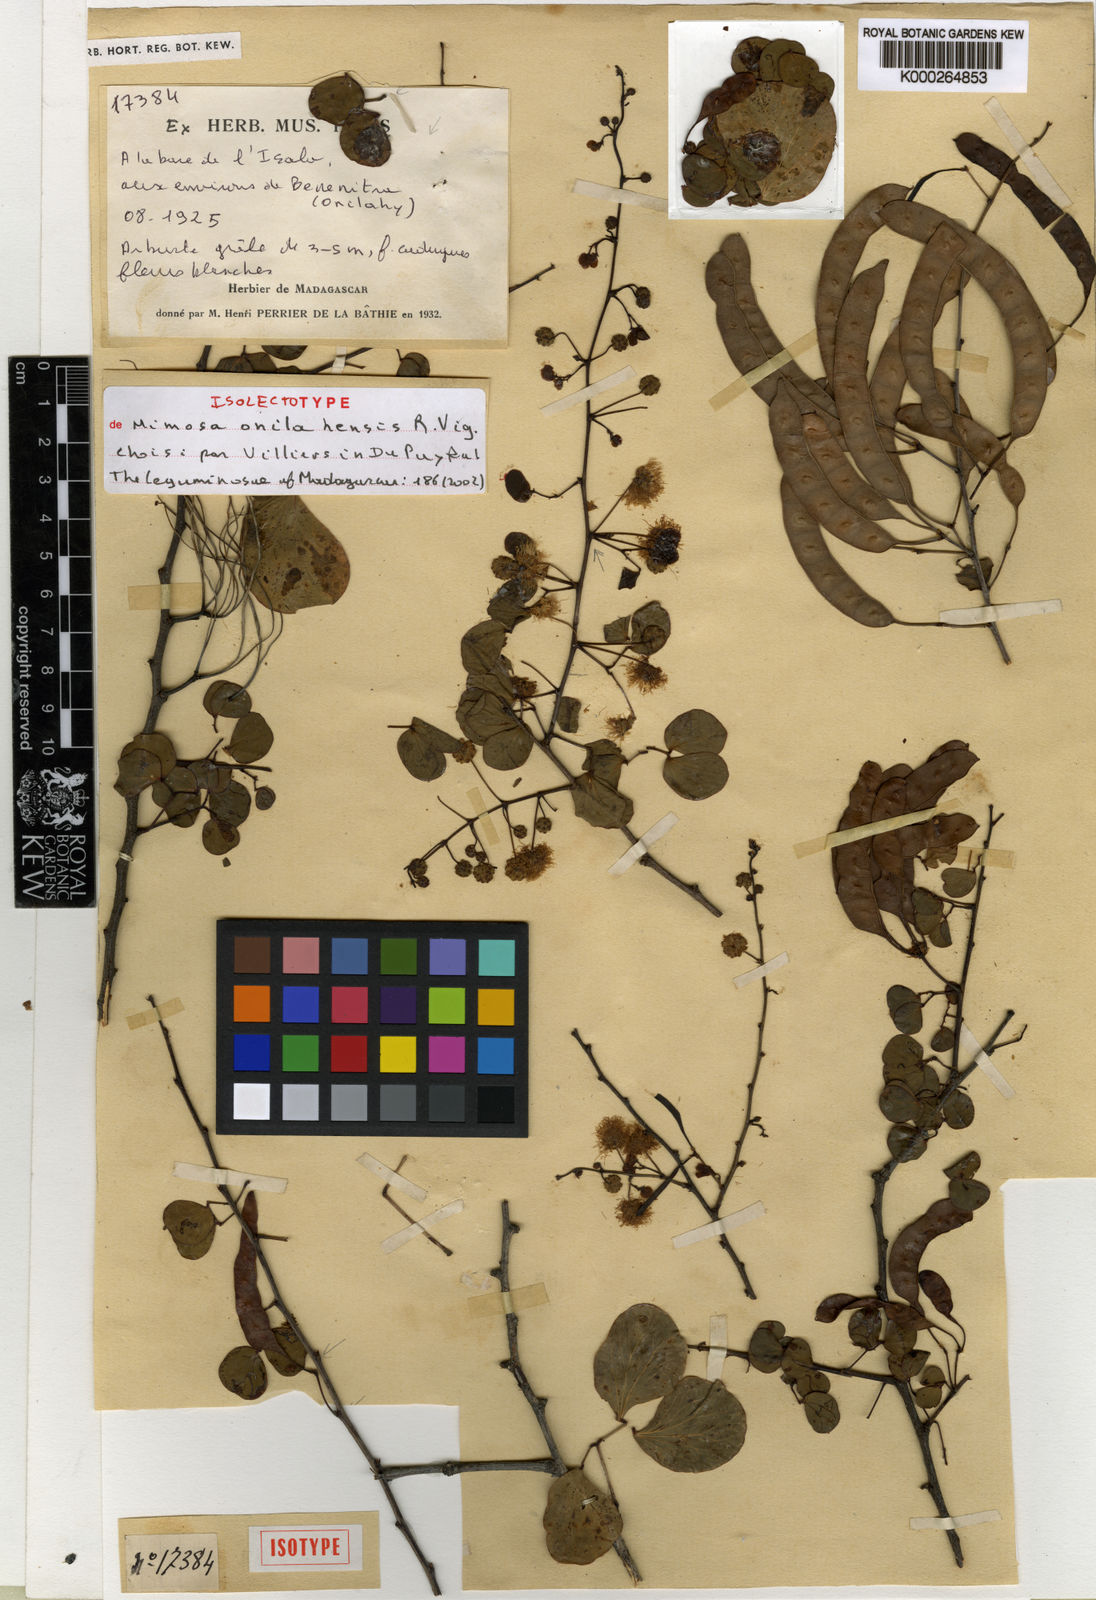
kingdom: Plantae
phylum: Tracheophyta
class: Magnoliopsida
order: Fabales
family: Fabaceae
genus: Mimosa
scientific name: Mimosa onilahensis
